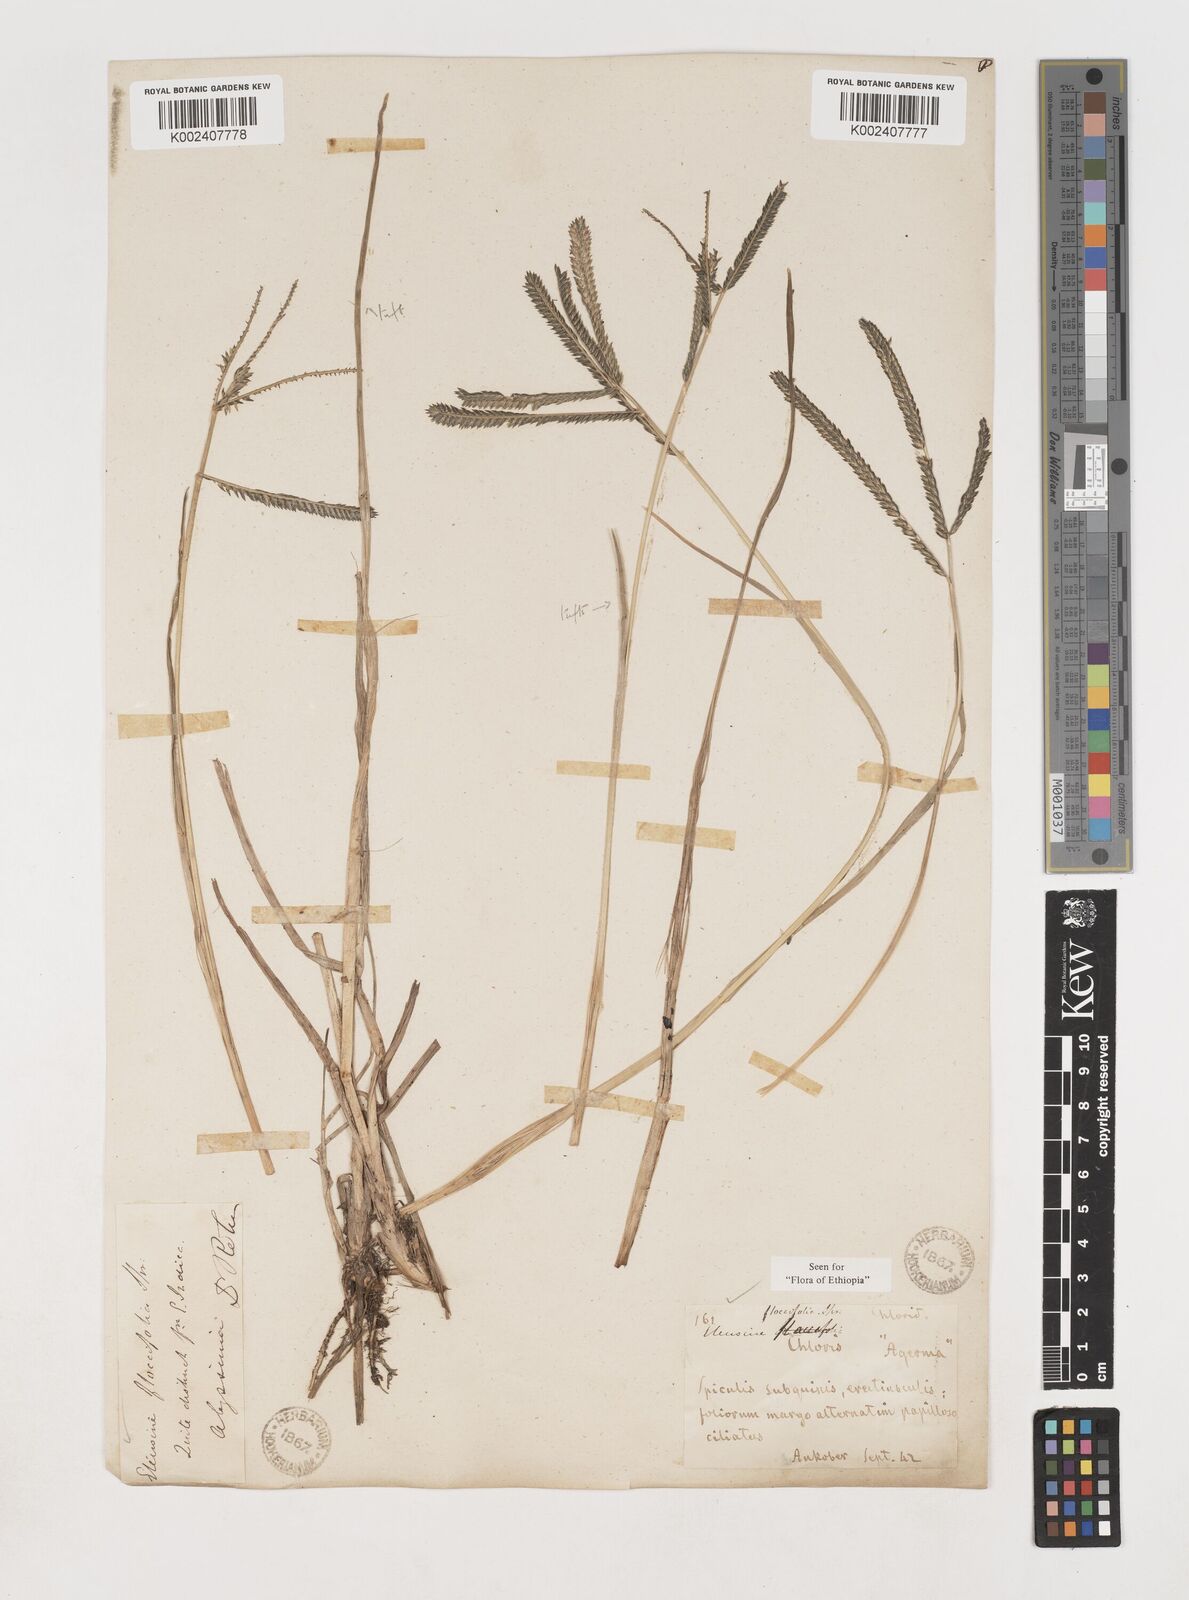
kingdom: Plantae
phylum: Tracheophyta
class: Liliopsida
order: Poales
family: Poaceae
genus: Eleusine
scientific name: Eleusine floccifolia
